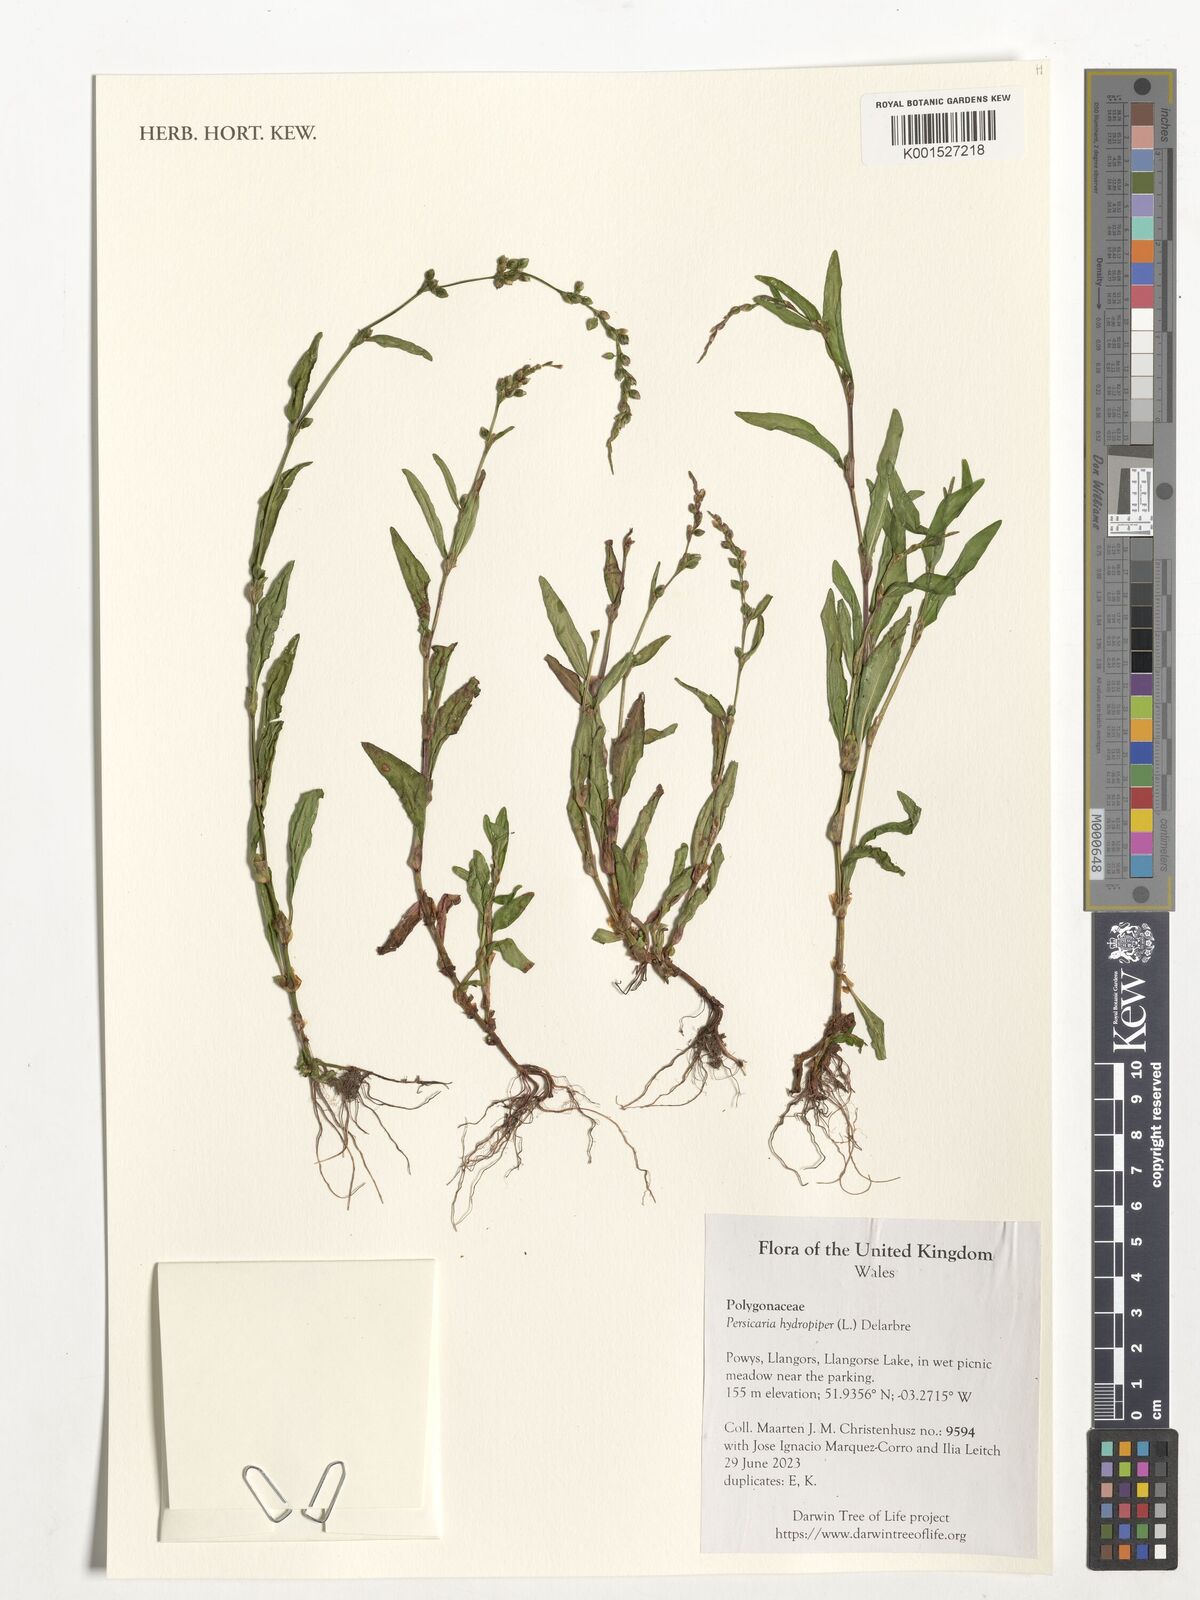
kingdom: Plantae
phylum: Tracheophyta
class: Magnoliopsida
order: Caryophyllales
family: Polygonaceae
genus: Persicaria
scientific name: Persicaria hydropiper
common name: Water-pepper
